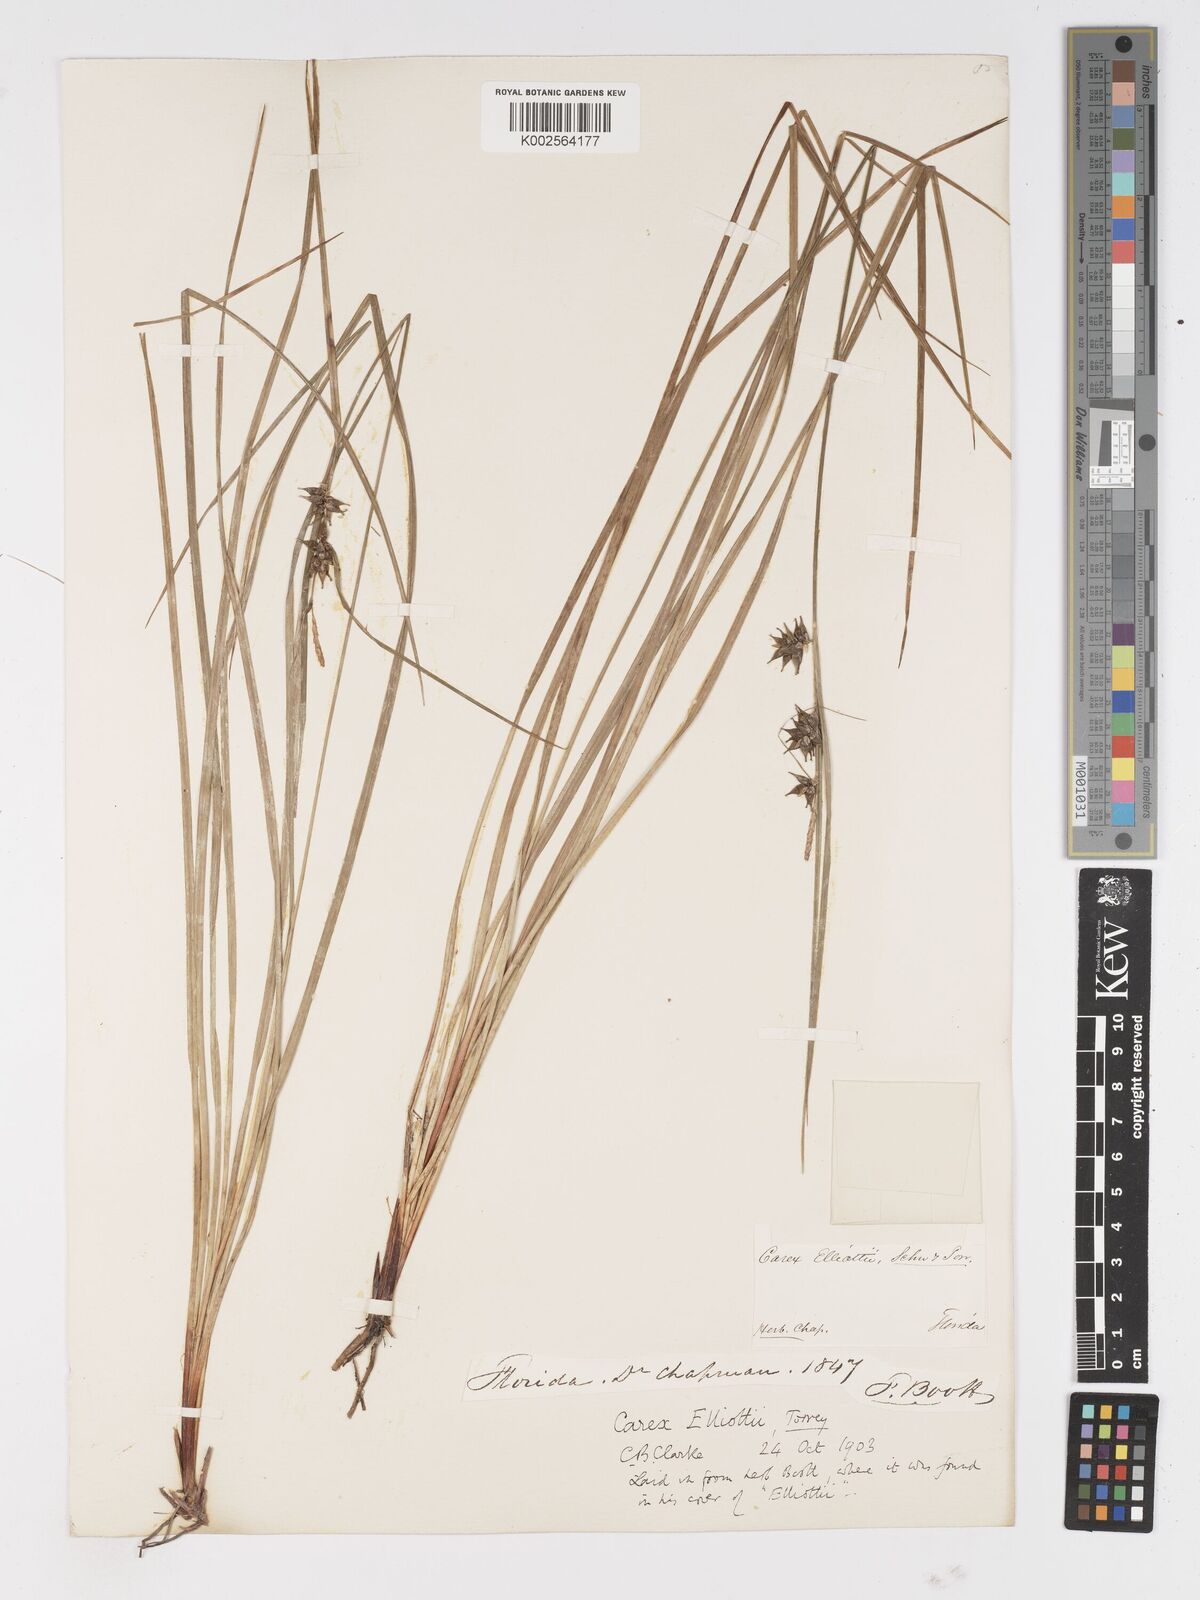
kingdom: Plantae
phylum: Tracheophyta
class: Liliopsida
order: Poales
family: Cyperaceae
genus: Carex
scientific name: Carex elliottii
